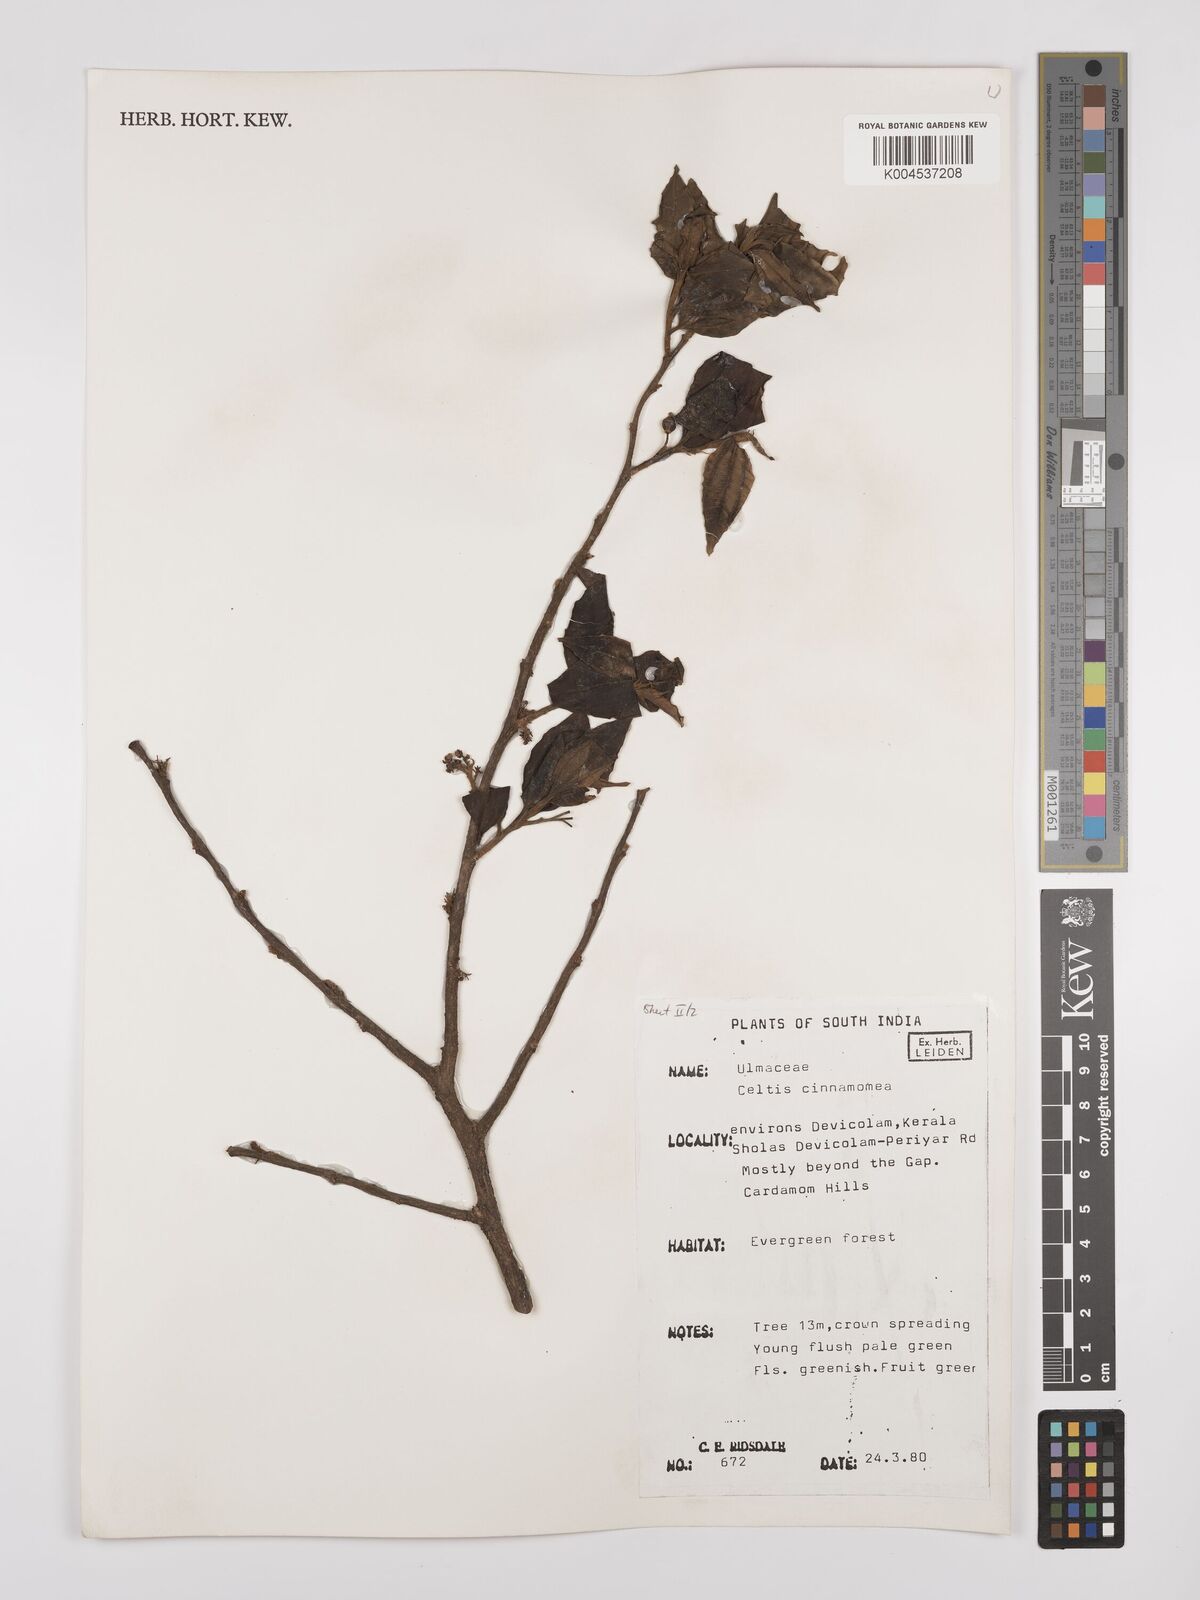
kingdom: Plantae
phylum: Tracheophyta
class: Magnoliopsida
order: Rosales
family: Cannabaceae
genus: Celtis
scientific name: Celtis timorensis
